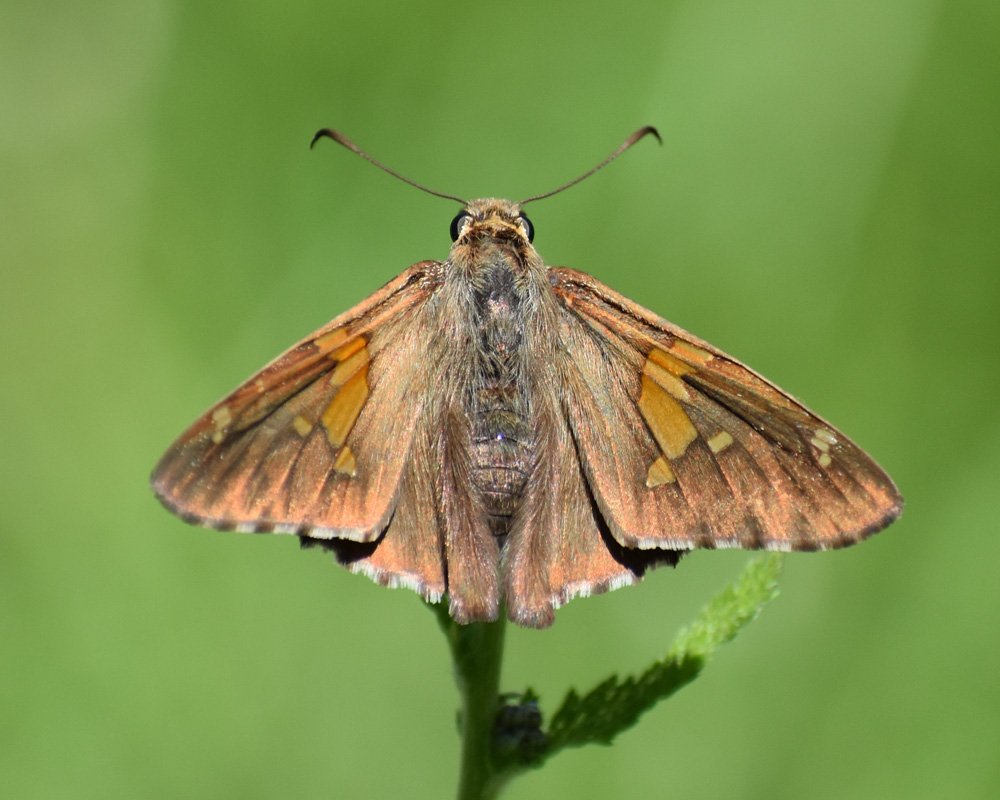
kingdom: Animalia
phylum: Arthropoda
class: Insecta
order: Lepidoptera
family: Hesperiidae
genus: Epargyreus
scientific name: Epargyreus clarus
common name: Silver-spotted Skipper
